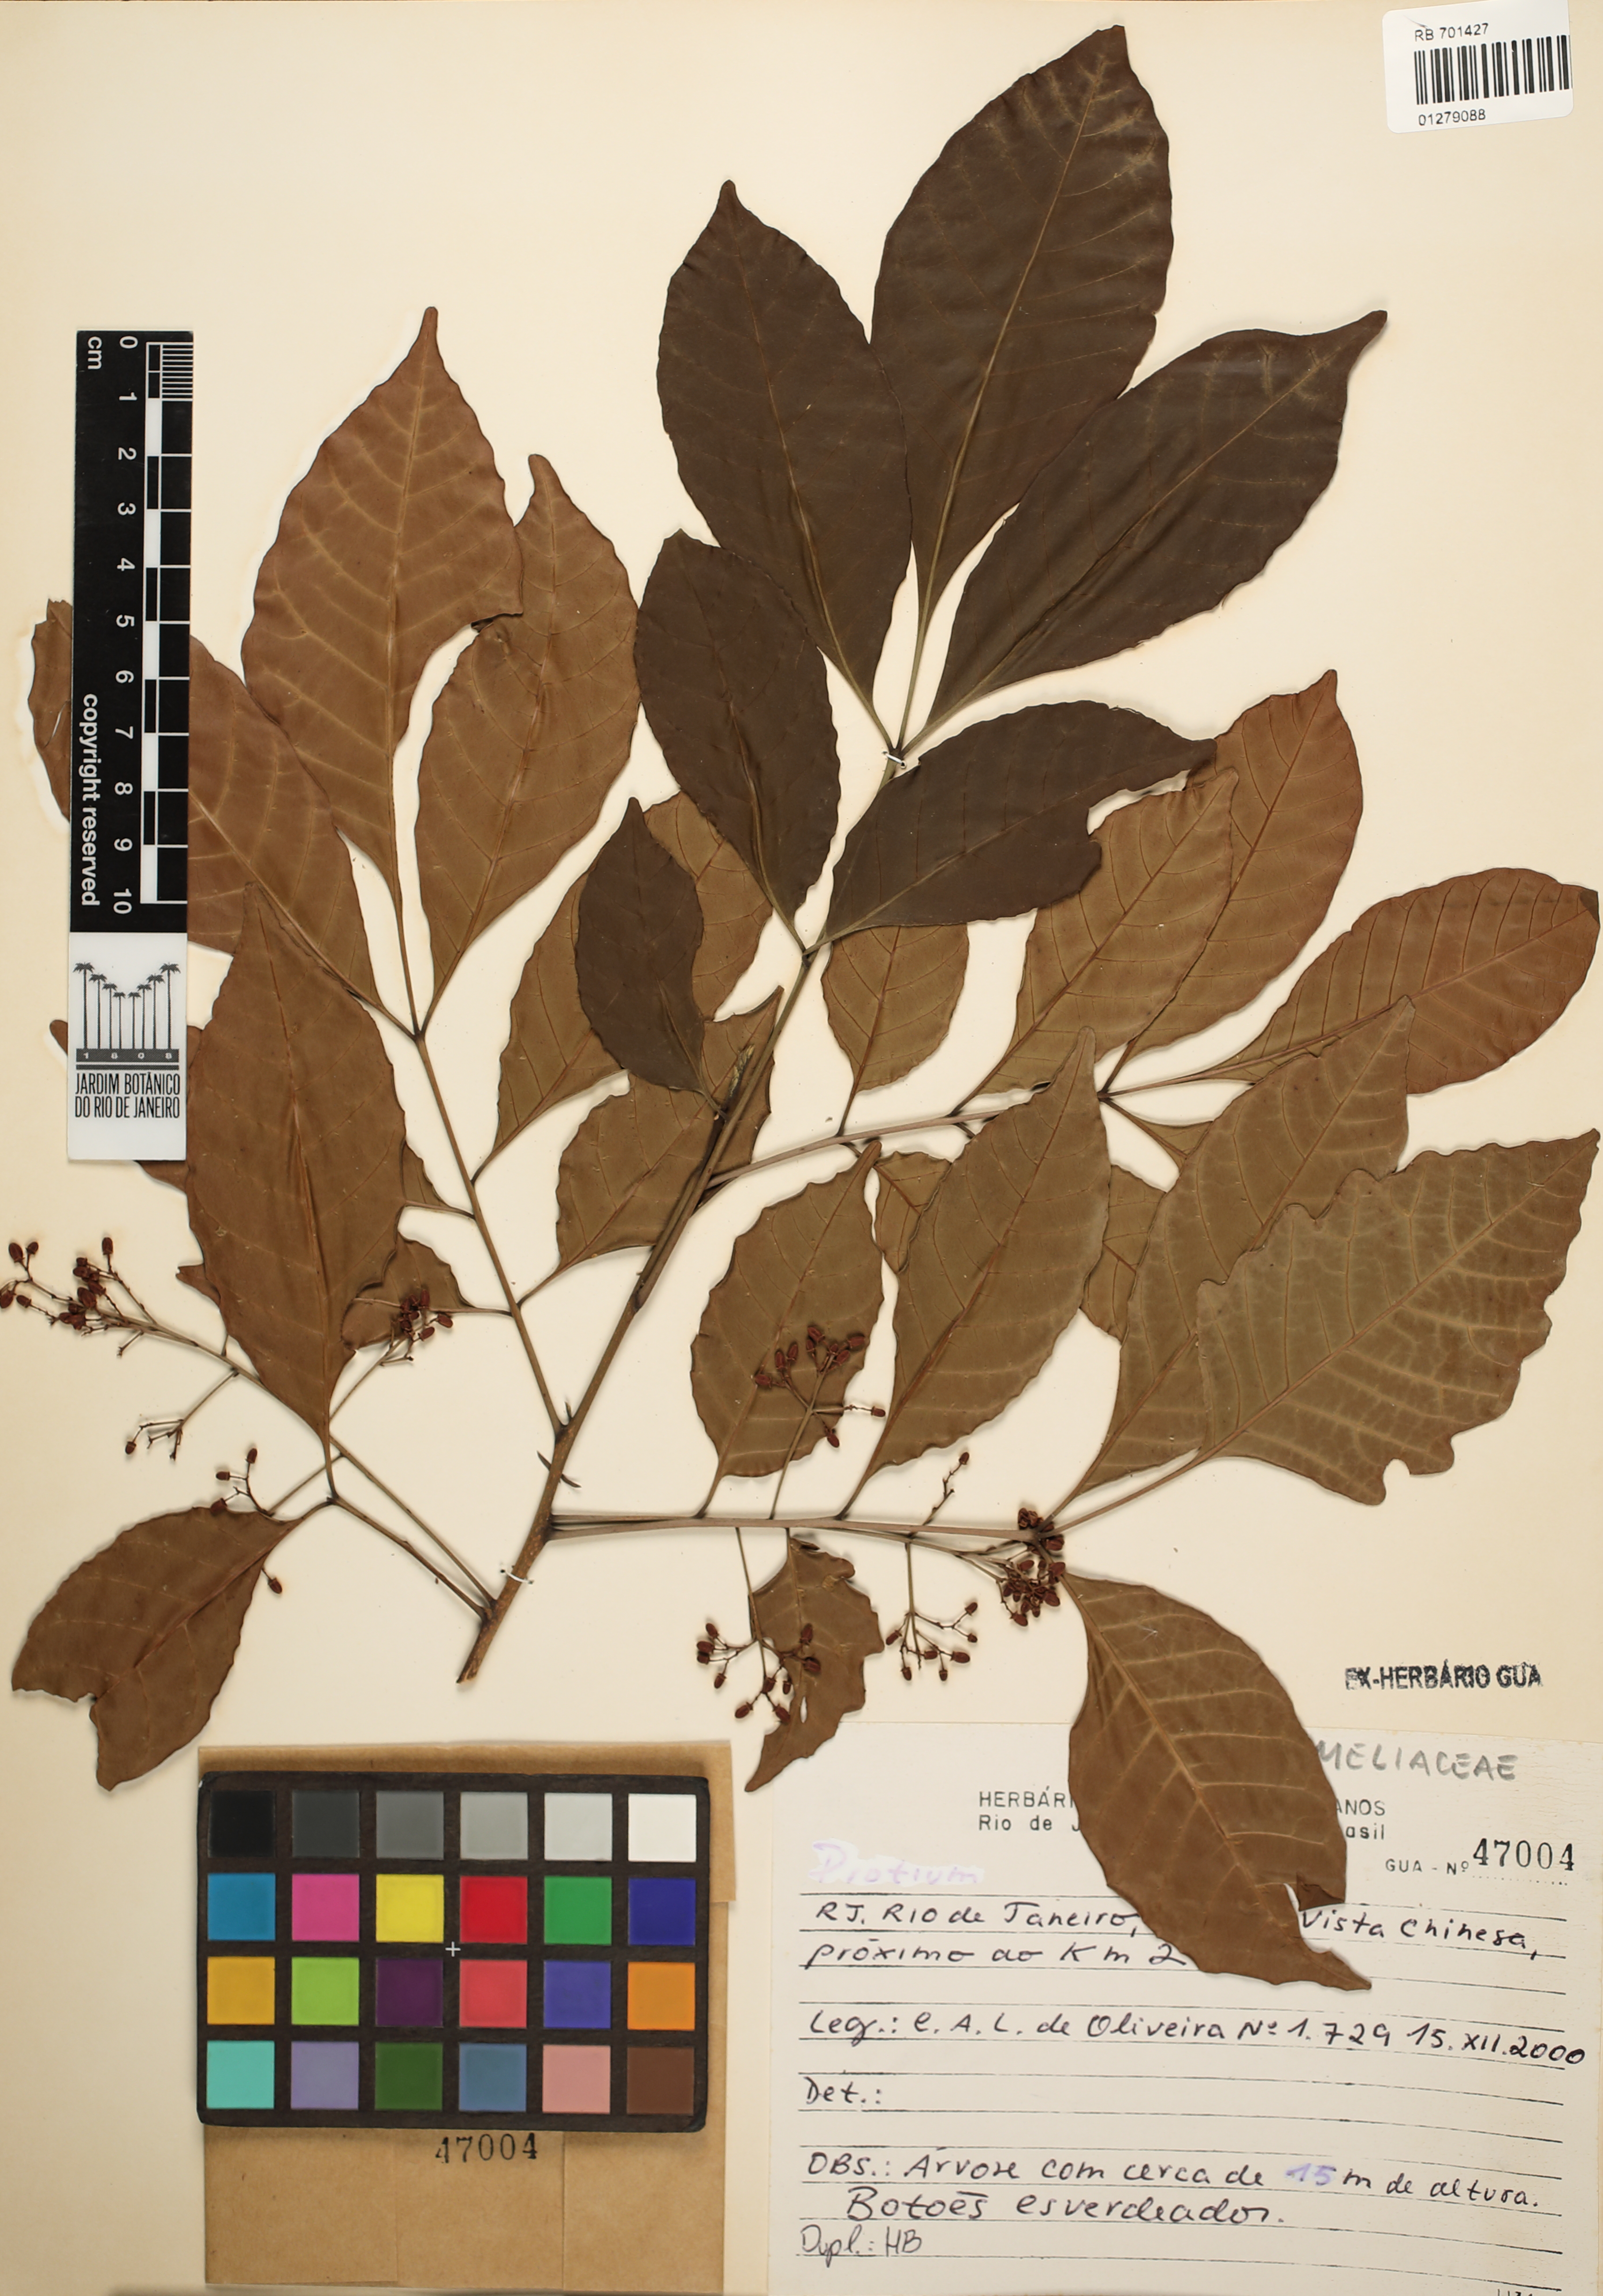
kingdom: Plantae
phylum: Tracheophyta
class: Magnoliopsida
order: Sapindales
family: Meliaceae
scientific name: Meliaceae
